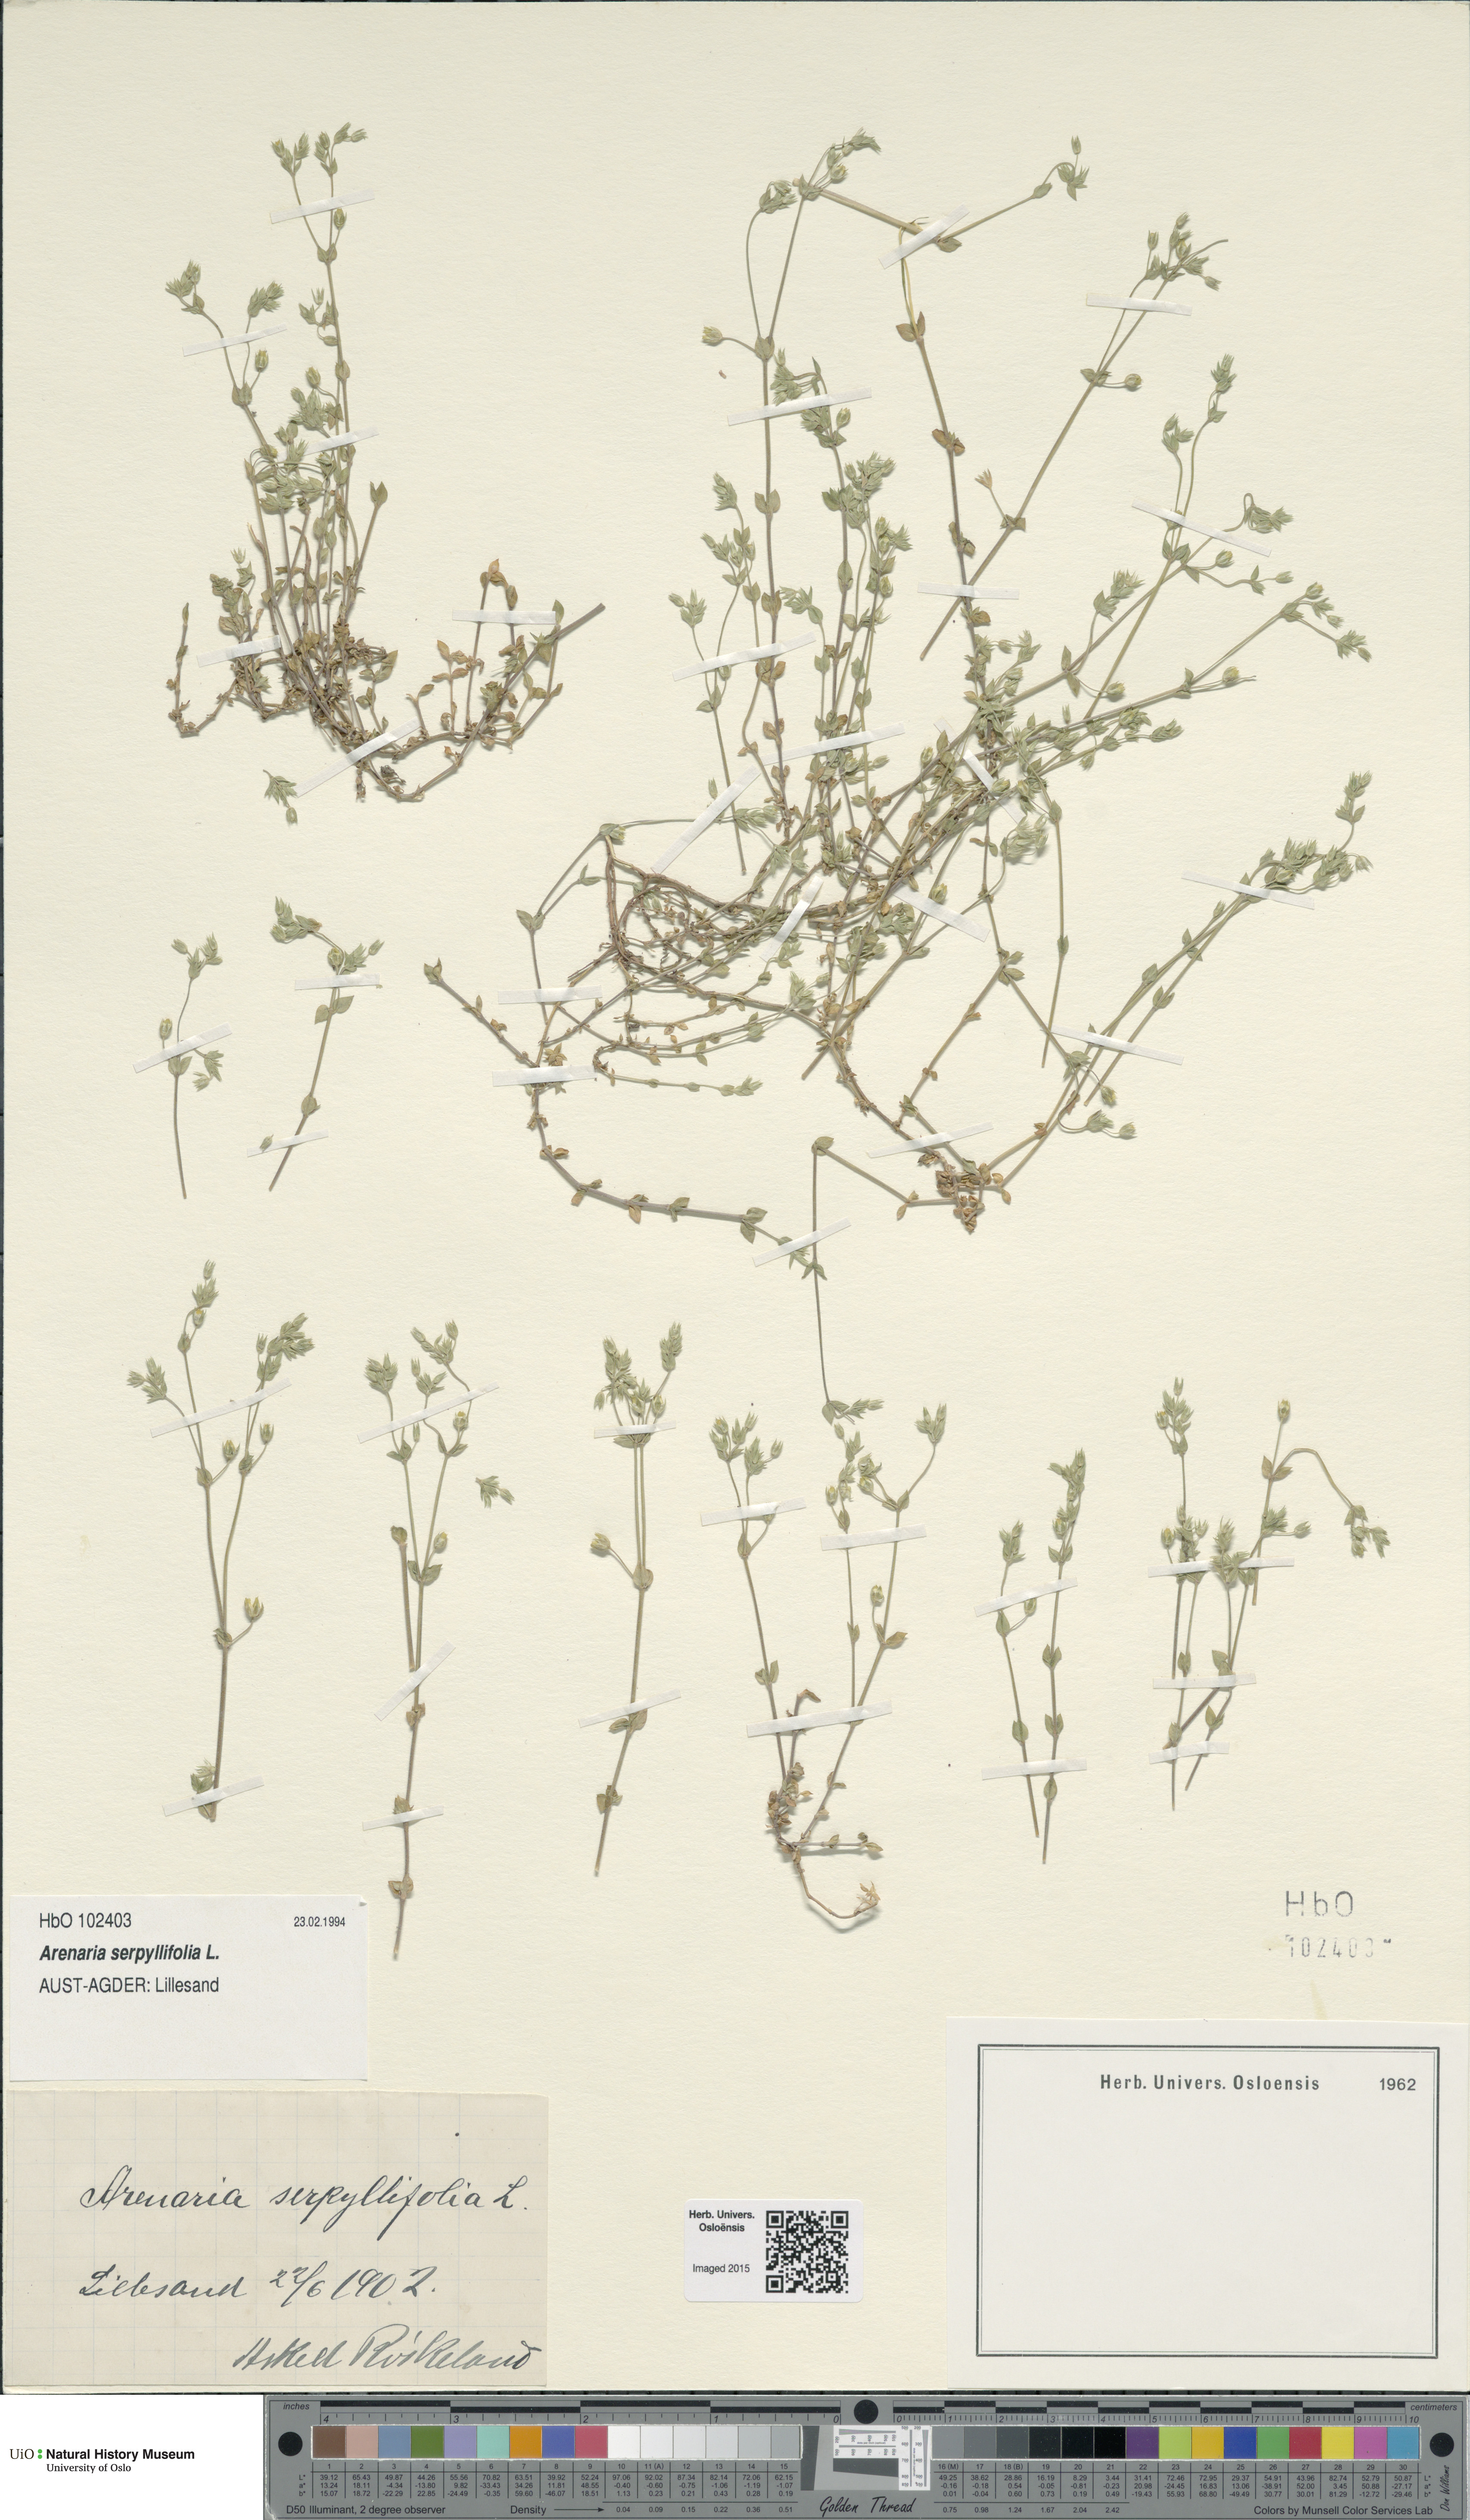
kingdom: Plantae
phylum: Tracheophyta
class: Magnoliopsida
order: Caryophyllales
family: Caryophyllaceae
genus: Arenaria
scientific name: Arenaria serpyllifolia
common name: Thyme-leaved sandwort
